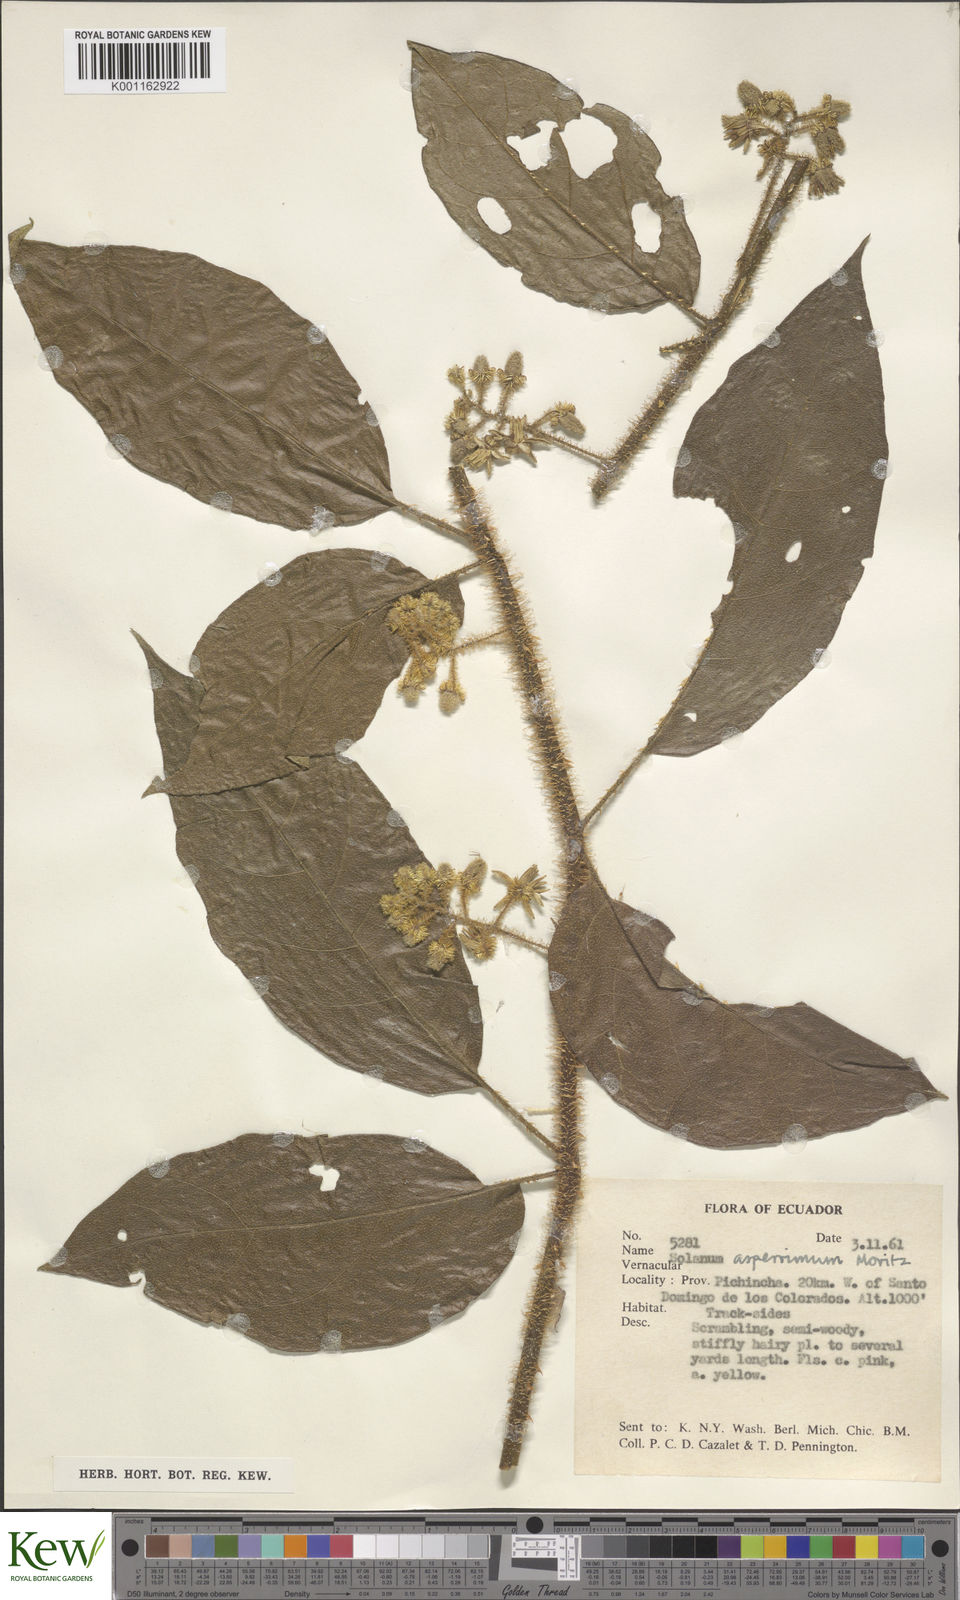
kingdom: Plantae
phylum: Tracheophyta
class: Magnoliopsida
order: Solanales
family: Solanaceae
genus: Solanum
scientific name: Solanum aturense
